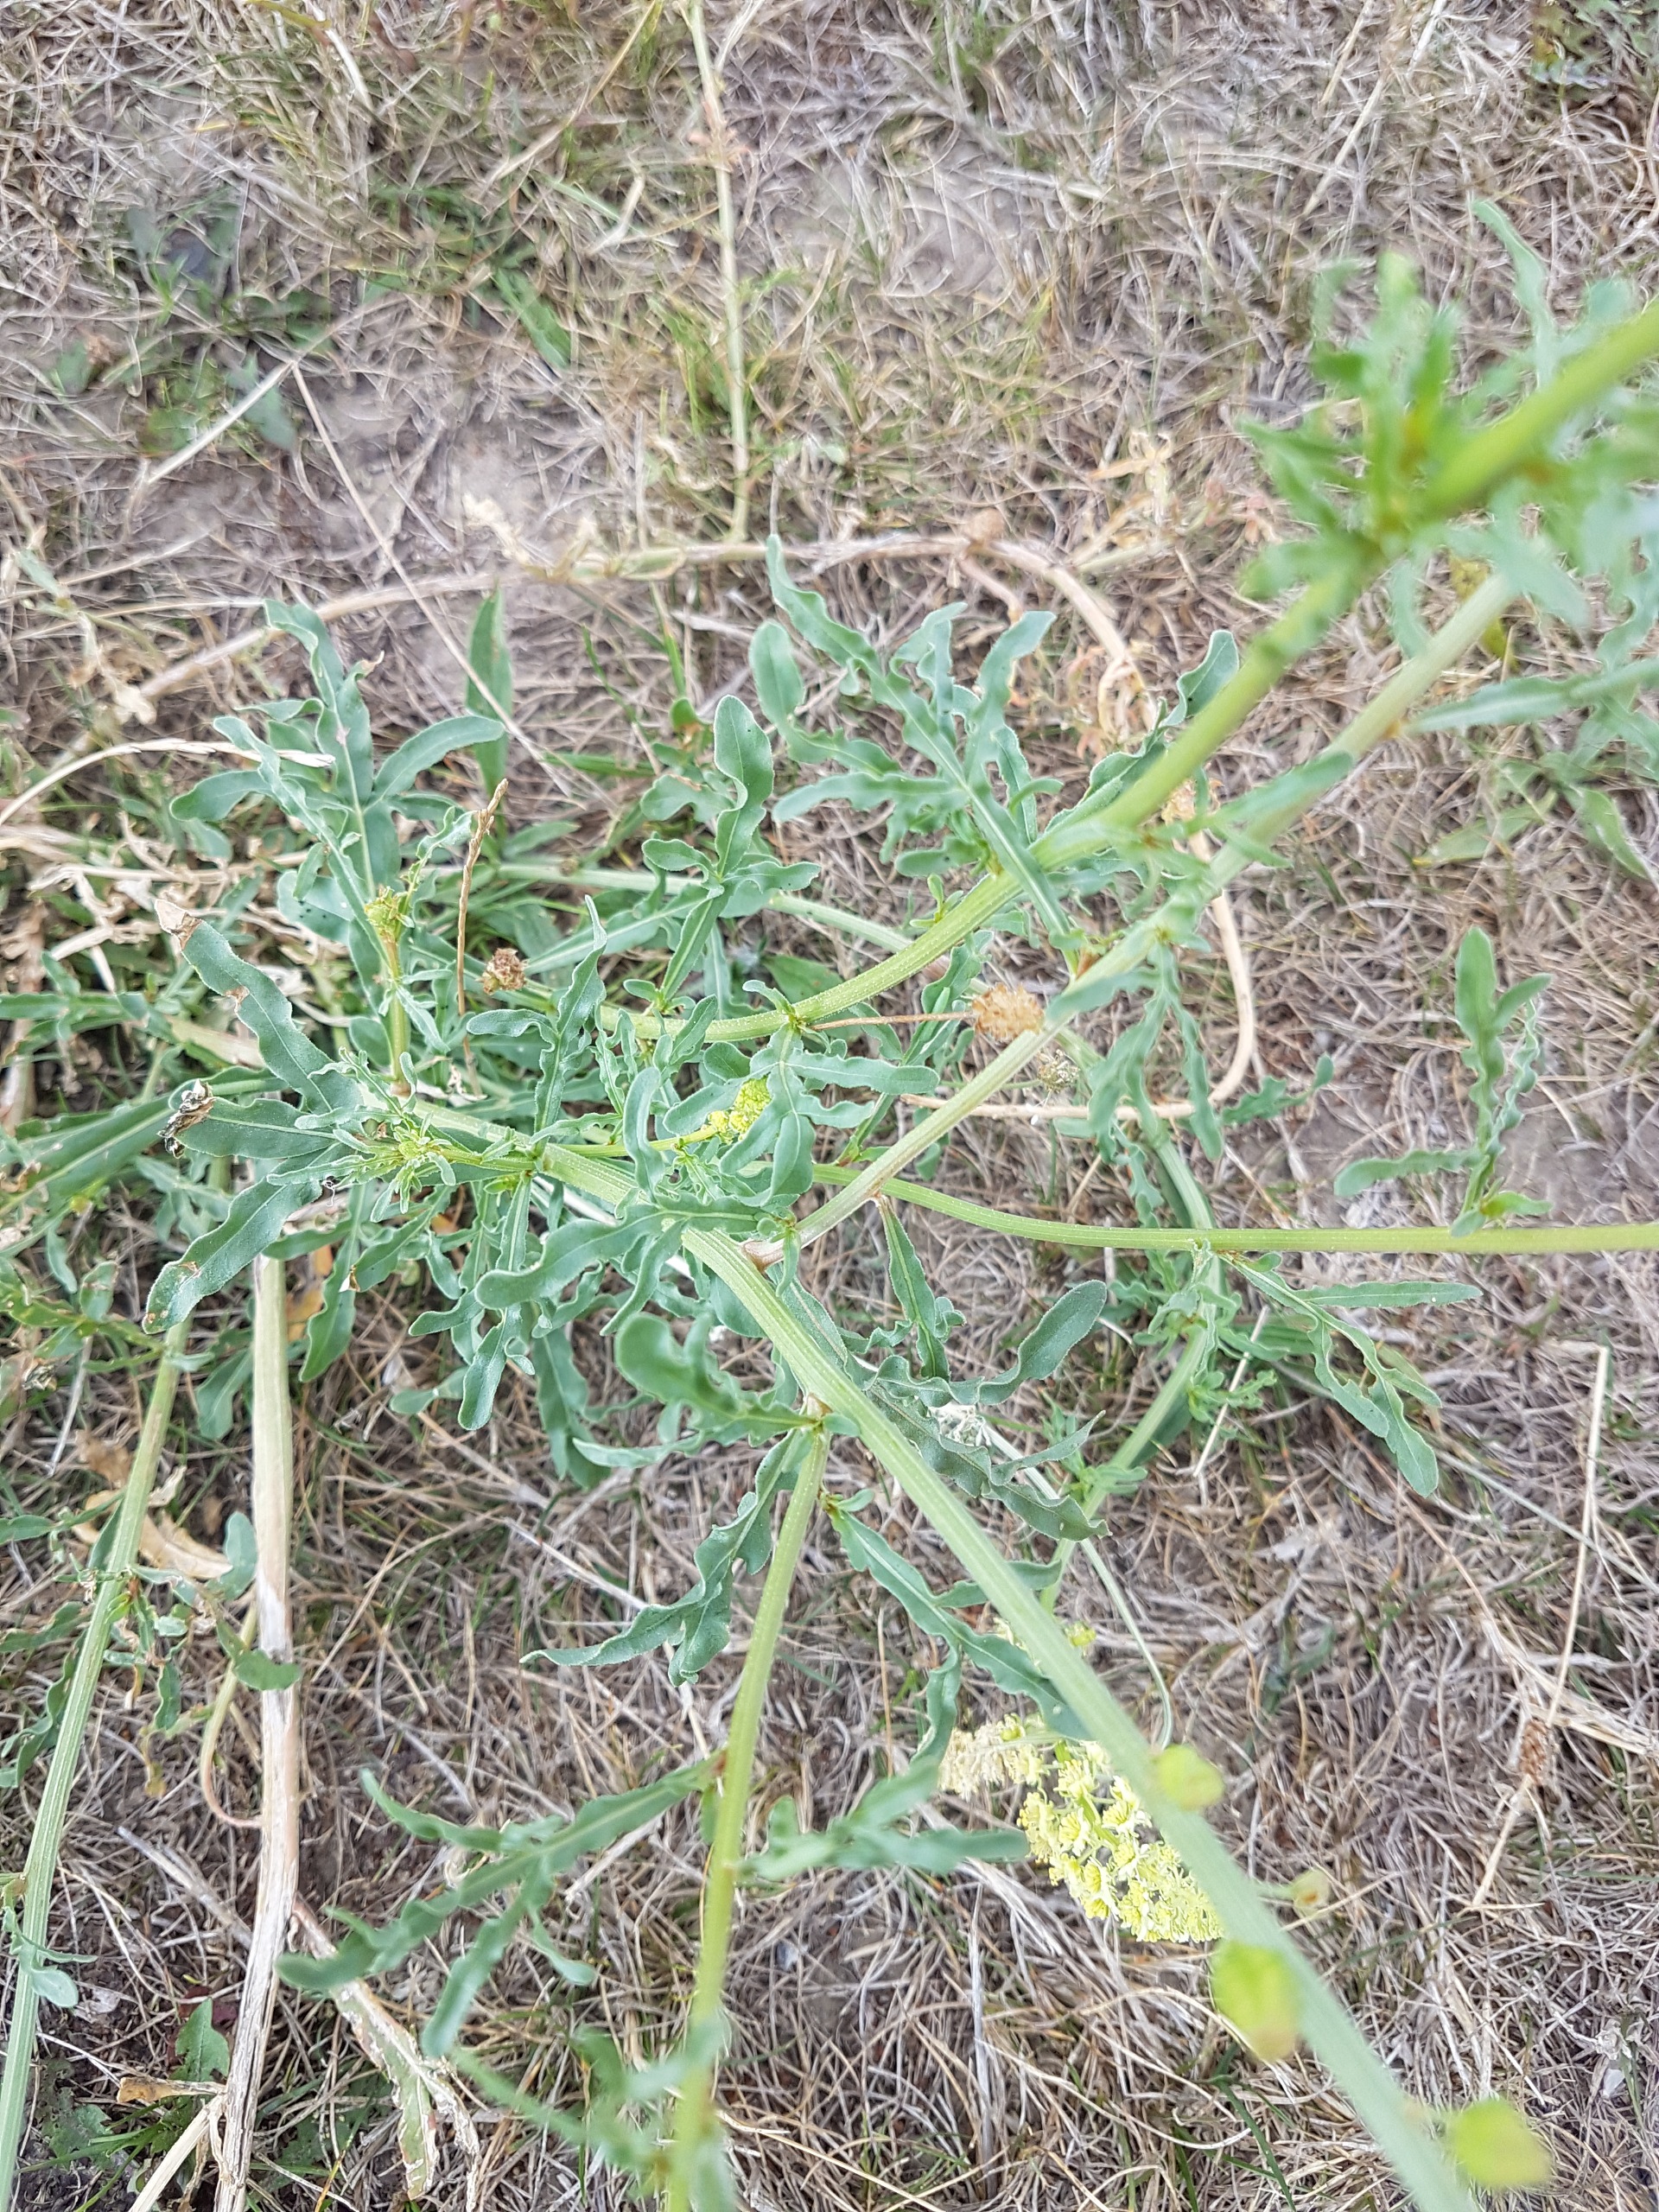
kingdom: Plantae
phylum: Tracheophyta
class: Magnoliopsida
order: Brassicales
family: Resedaceae
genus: Reseda
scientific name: Reseda lutea
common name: Gul reseda
